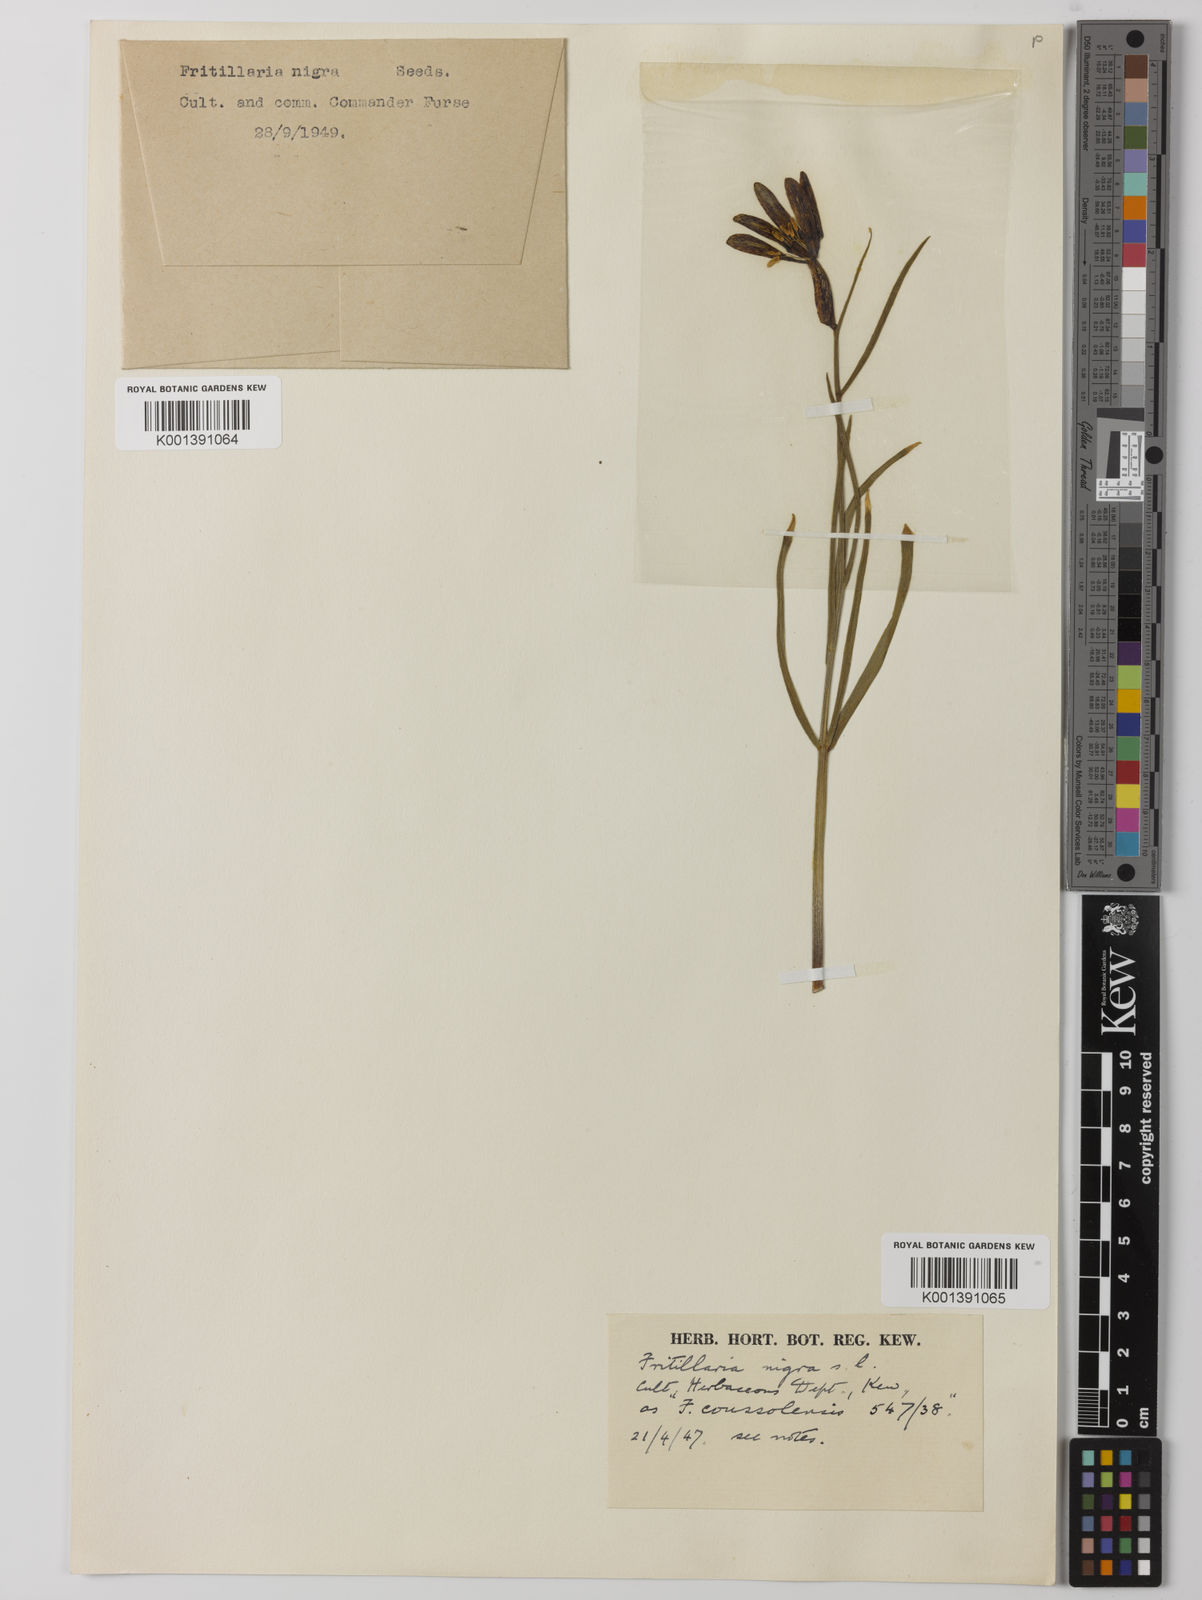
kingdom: Plantae
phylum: Tracheophyta
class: Liliopsida
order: Liliales
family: Liliaceae
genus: Fritillaria
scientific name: Fritillaria pyrenaica
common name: Pyrenean snake's-head
